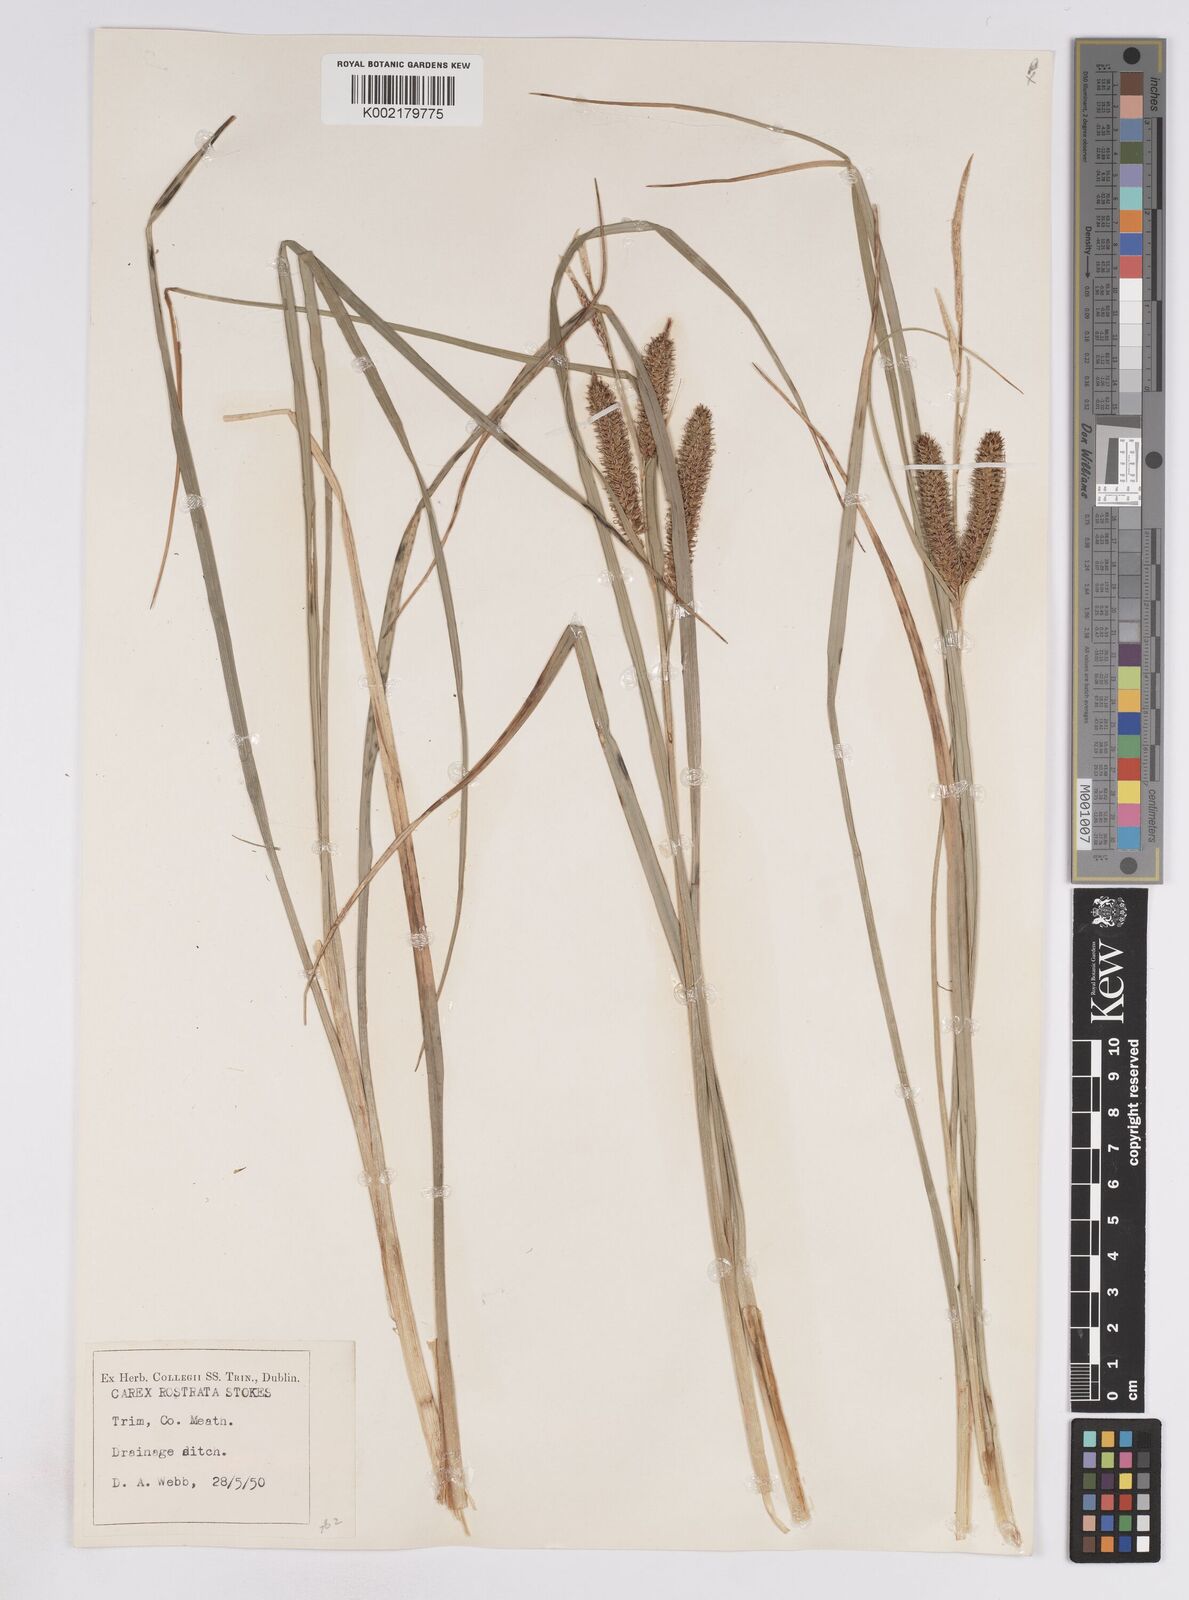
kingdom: Plantae
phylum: Tracheophyta
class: Liliopsida
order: Poales
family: Cyperaceae
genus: Carex
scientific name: Carex rostrata
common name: Bottle sedge
